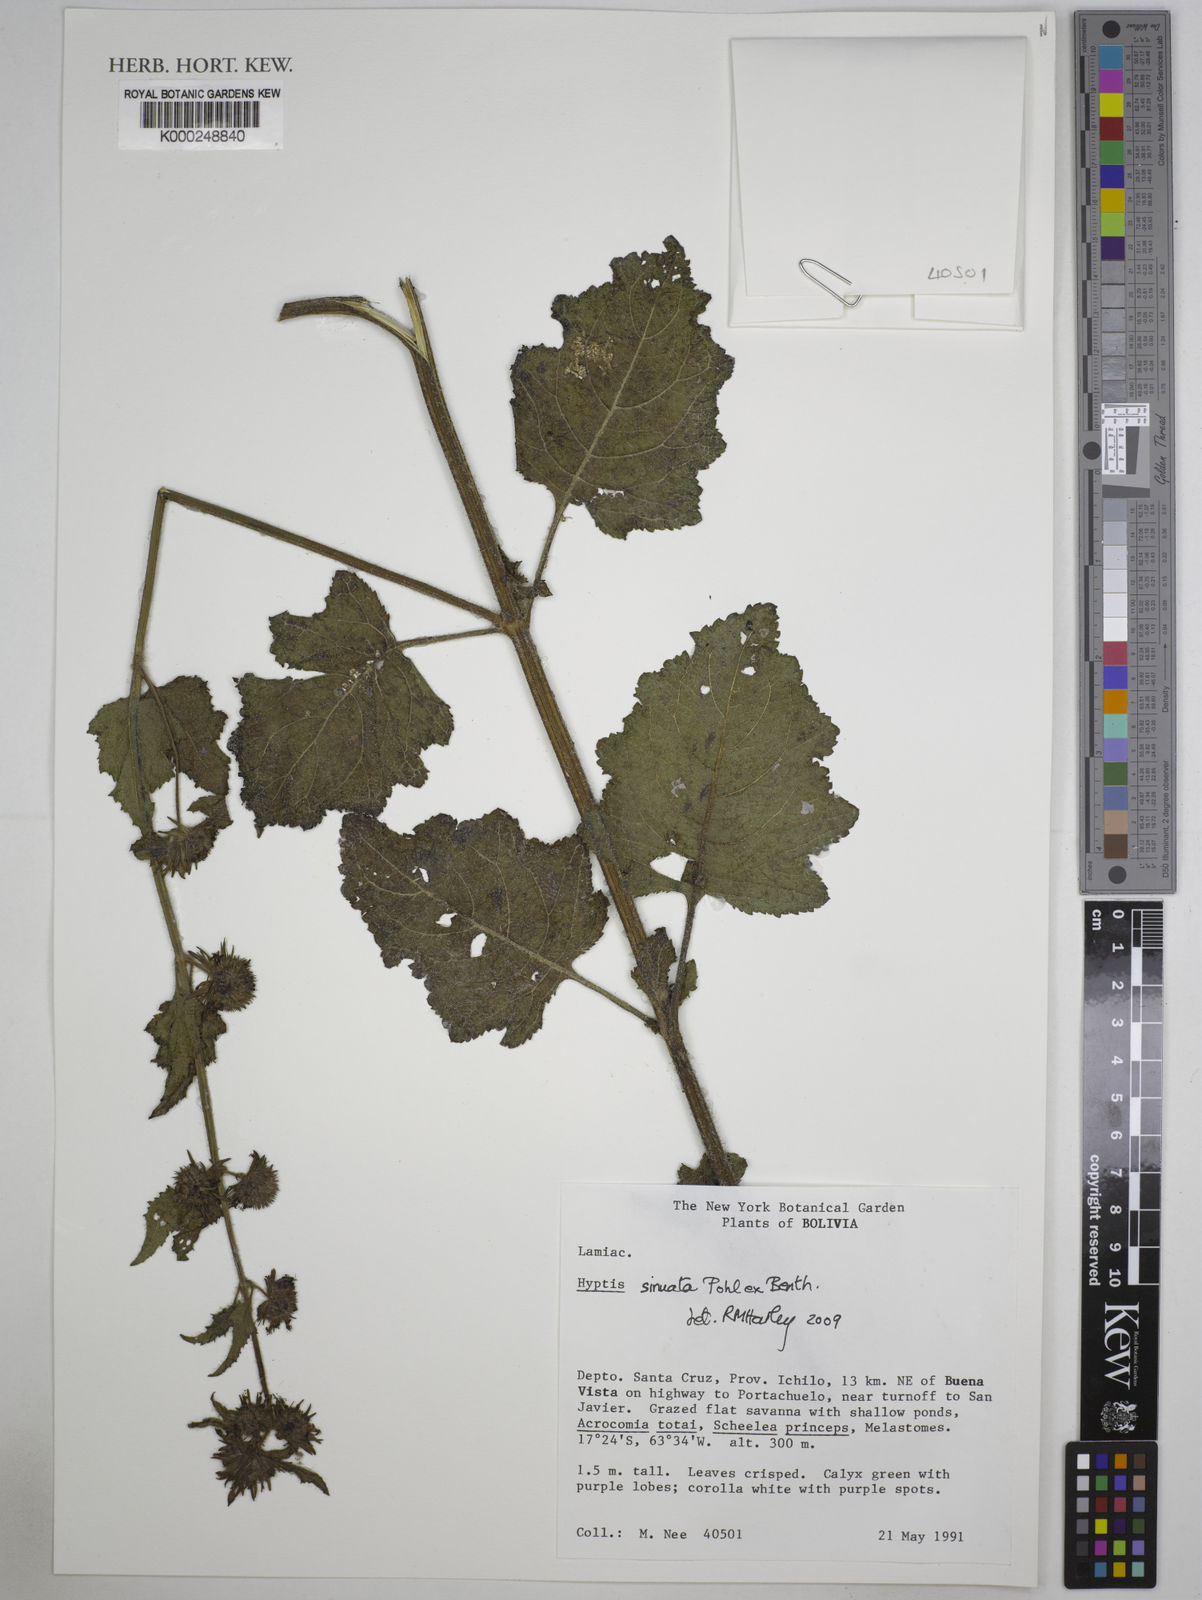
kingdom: Plantae
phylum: Tracheophyta
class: Magnoliopsida
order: Lamiales
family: Lamiaceae
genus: Hyptis
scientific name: Hyptis sinuata
